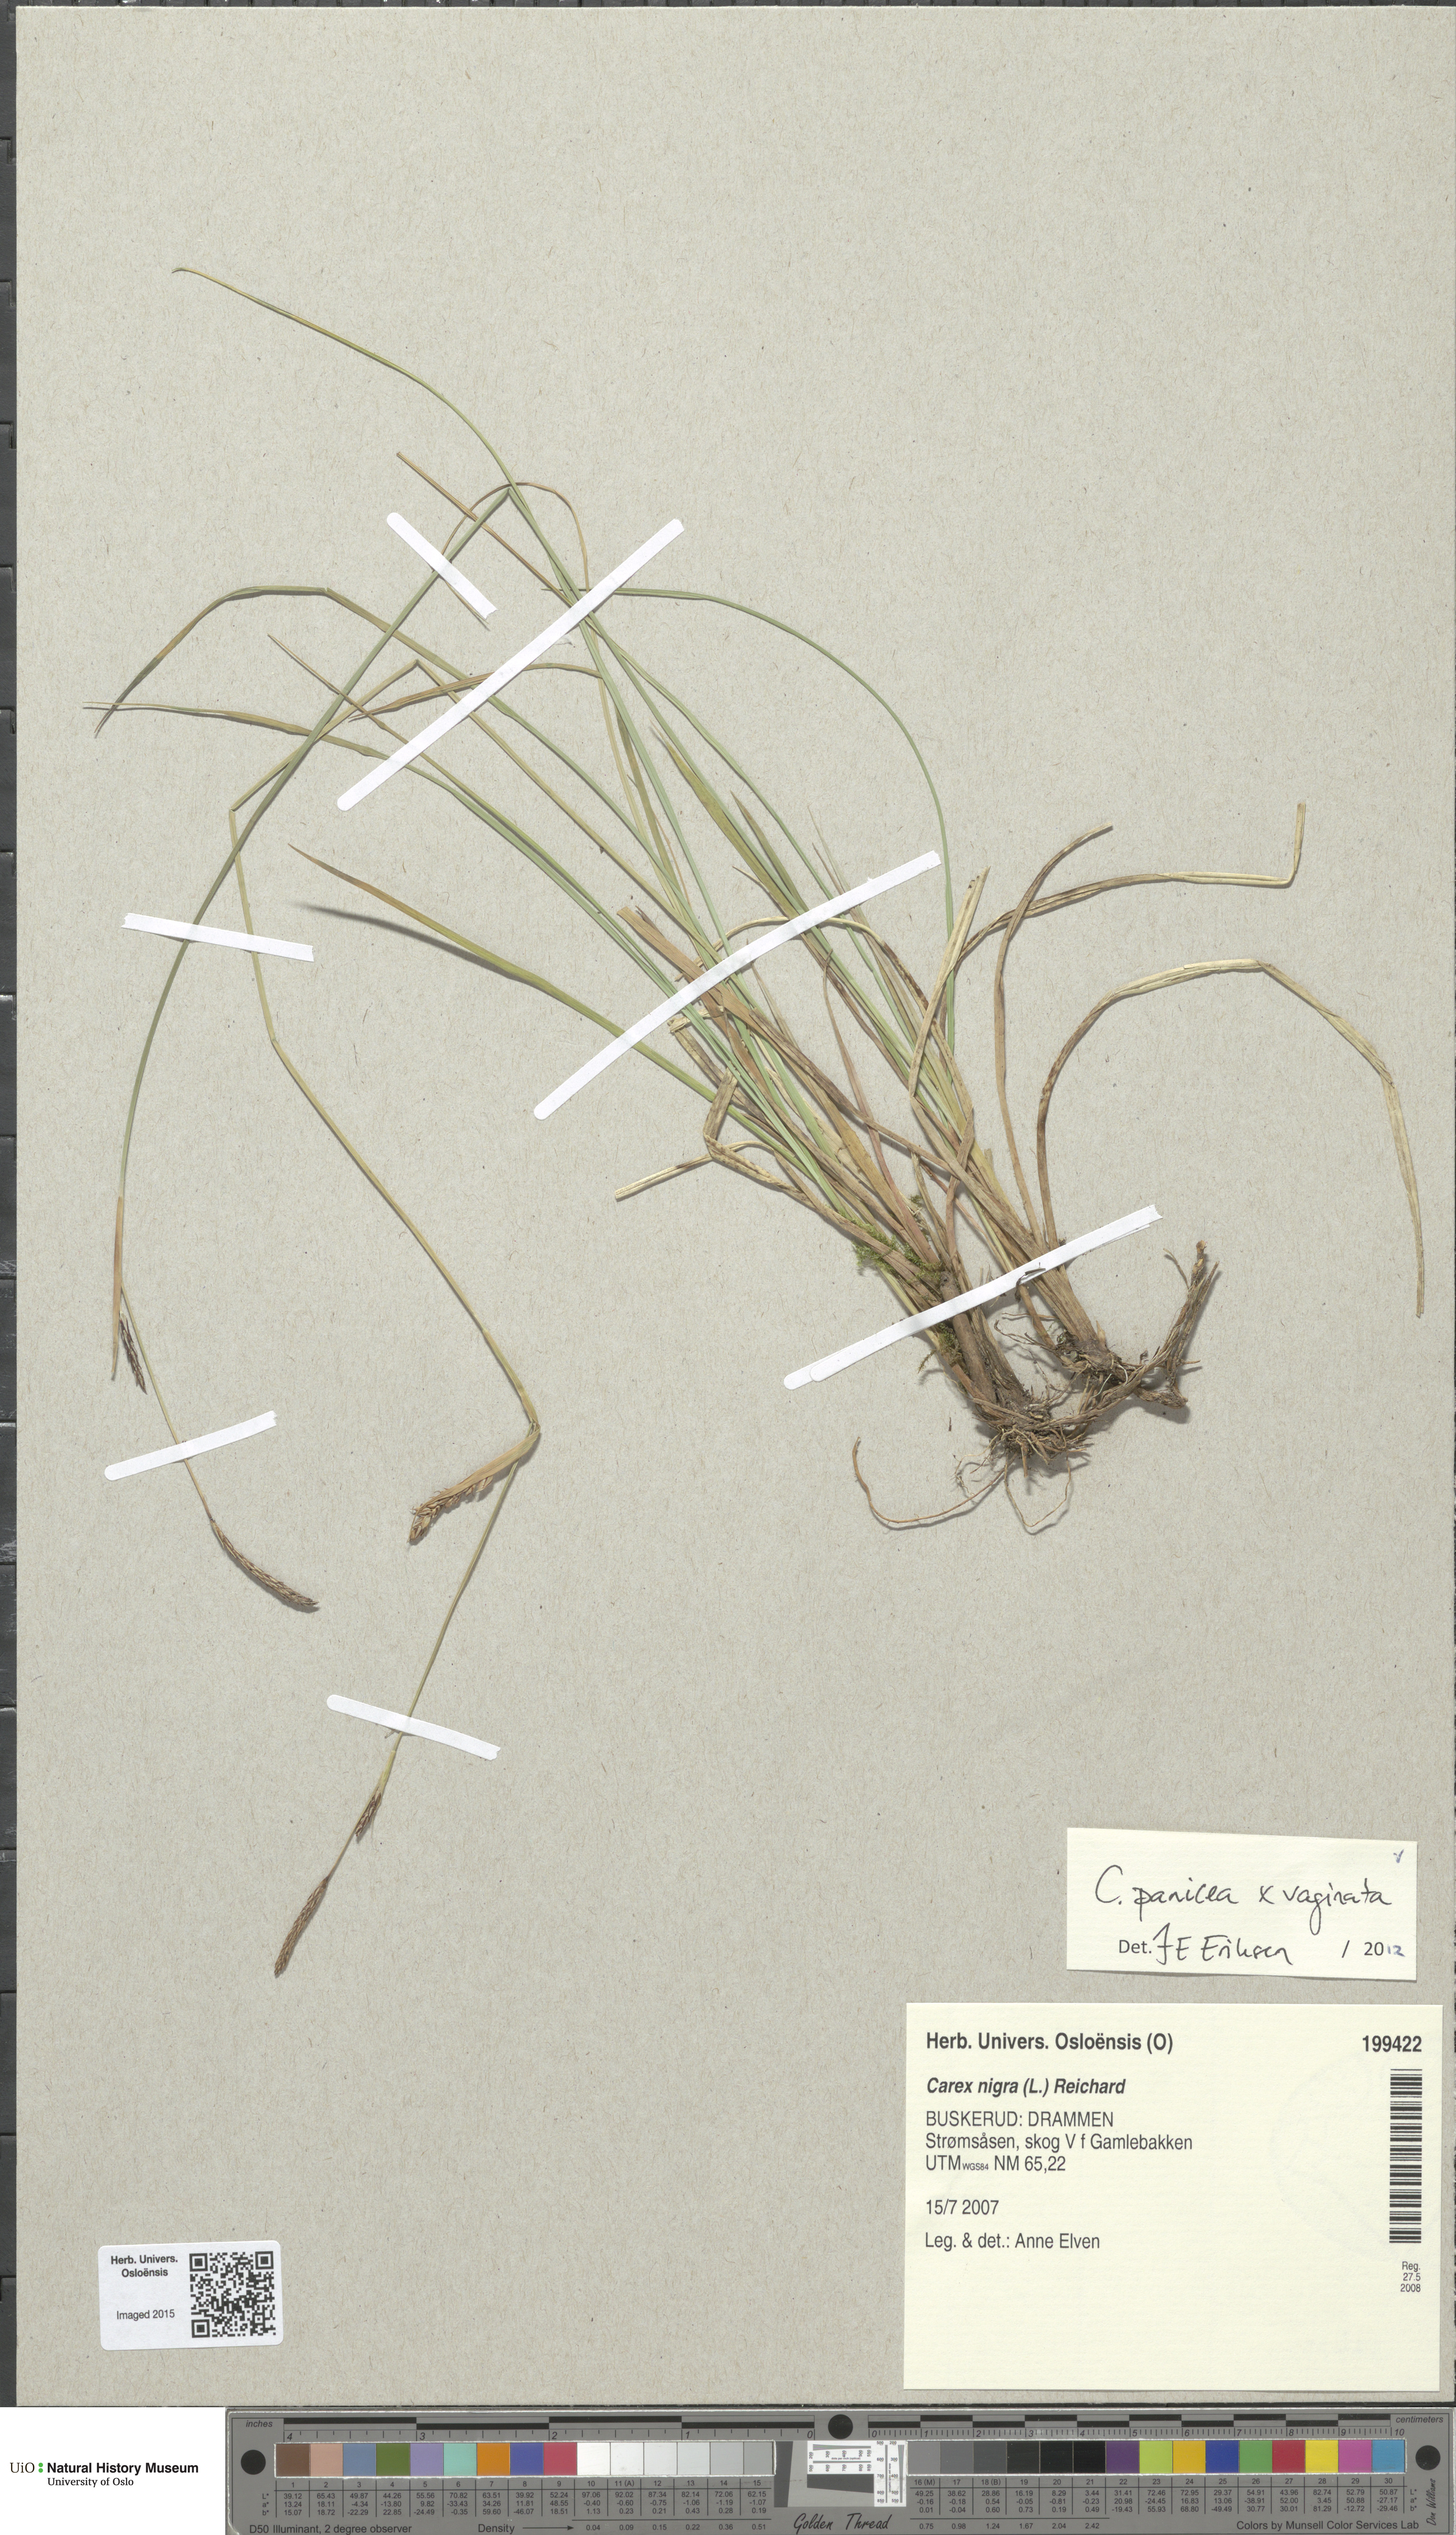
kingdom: Plantae
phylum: Tracheophyta
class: Liliopsida
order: Poales
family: Cyperaceae
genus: Carex
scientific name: Carex
